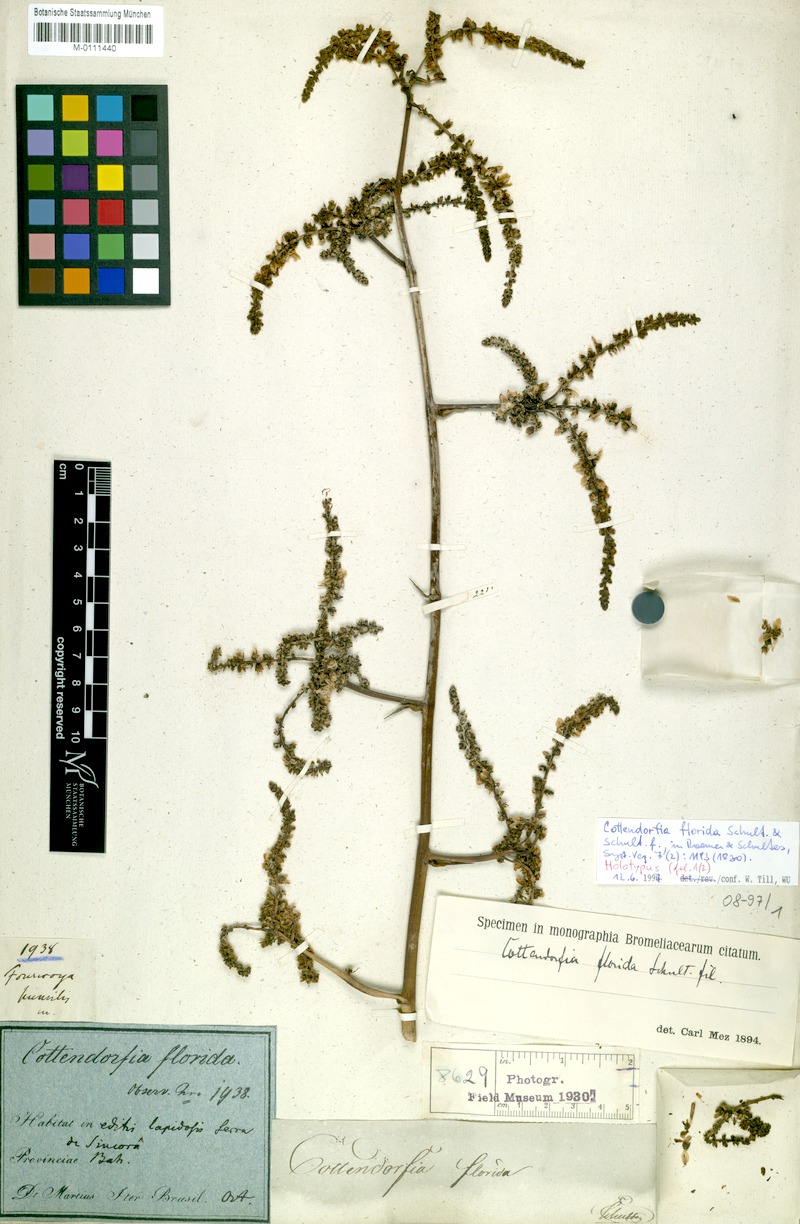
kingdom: Plantae
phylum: Tracheophyta
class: Liliopsida
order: Poales
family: Bromeliaceae
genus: Cottendorfia
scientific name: Cottendorfia florida
